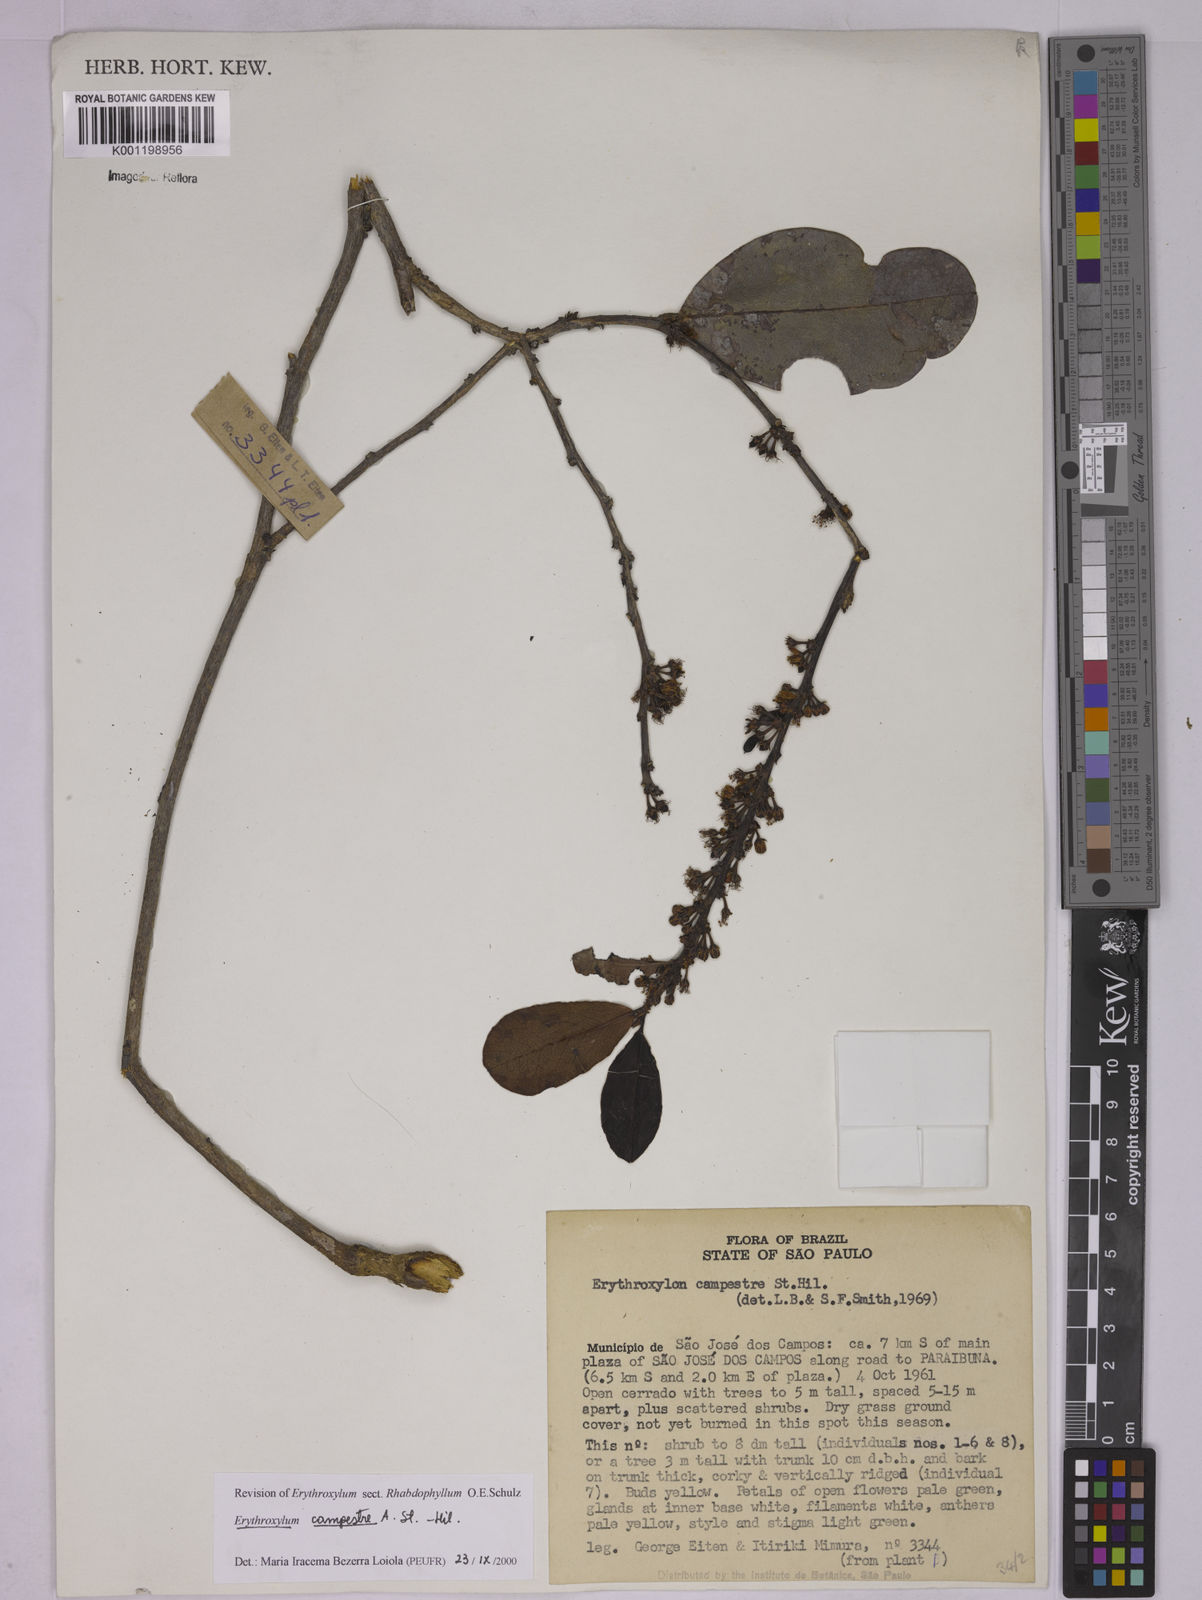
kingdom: Plantae
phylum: Tracheophyta
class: Magnoliopsida
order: Malpighiales
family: Erythroxylaceae
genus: Erythroxylum
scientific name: Erythroxylum campestre
